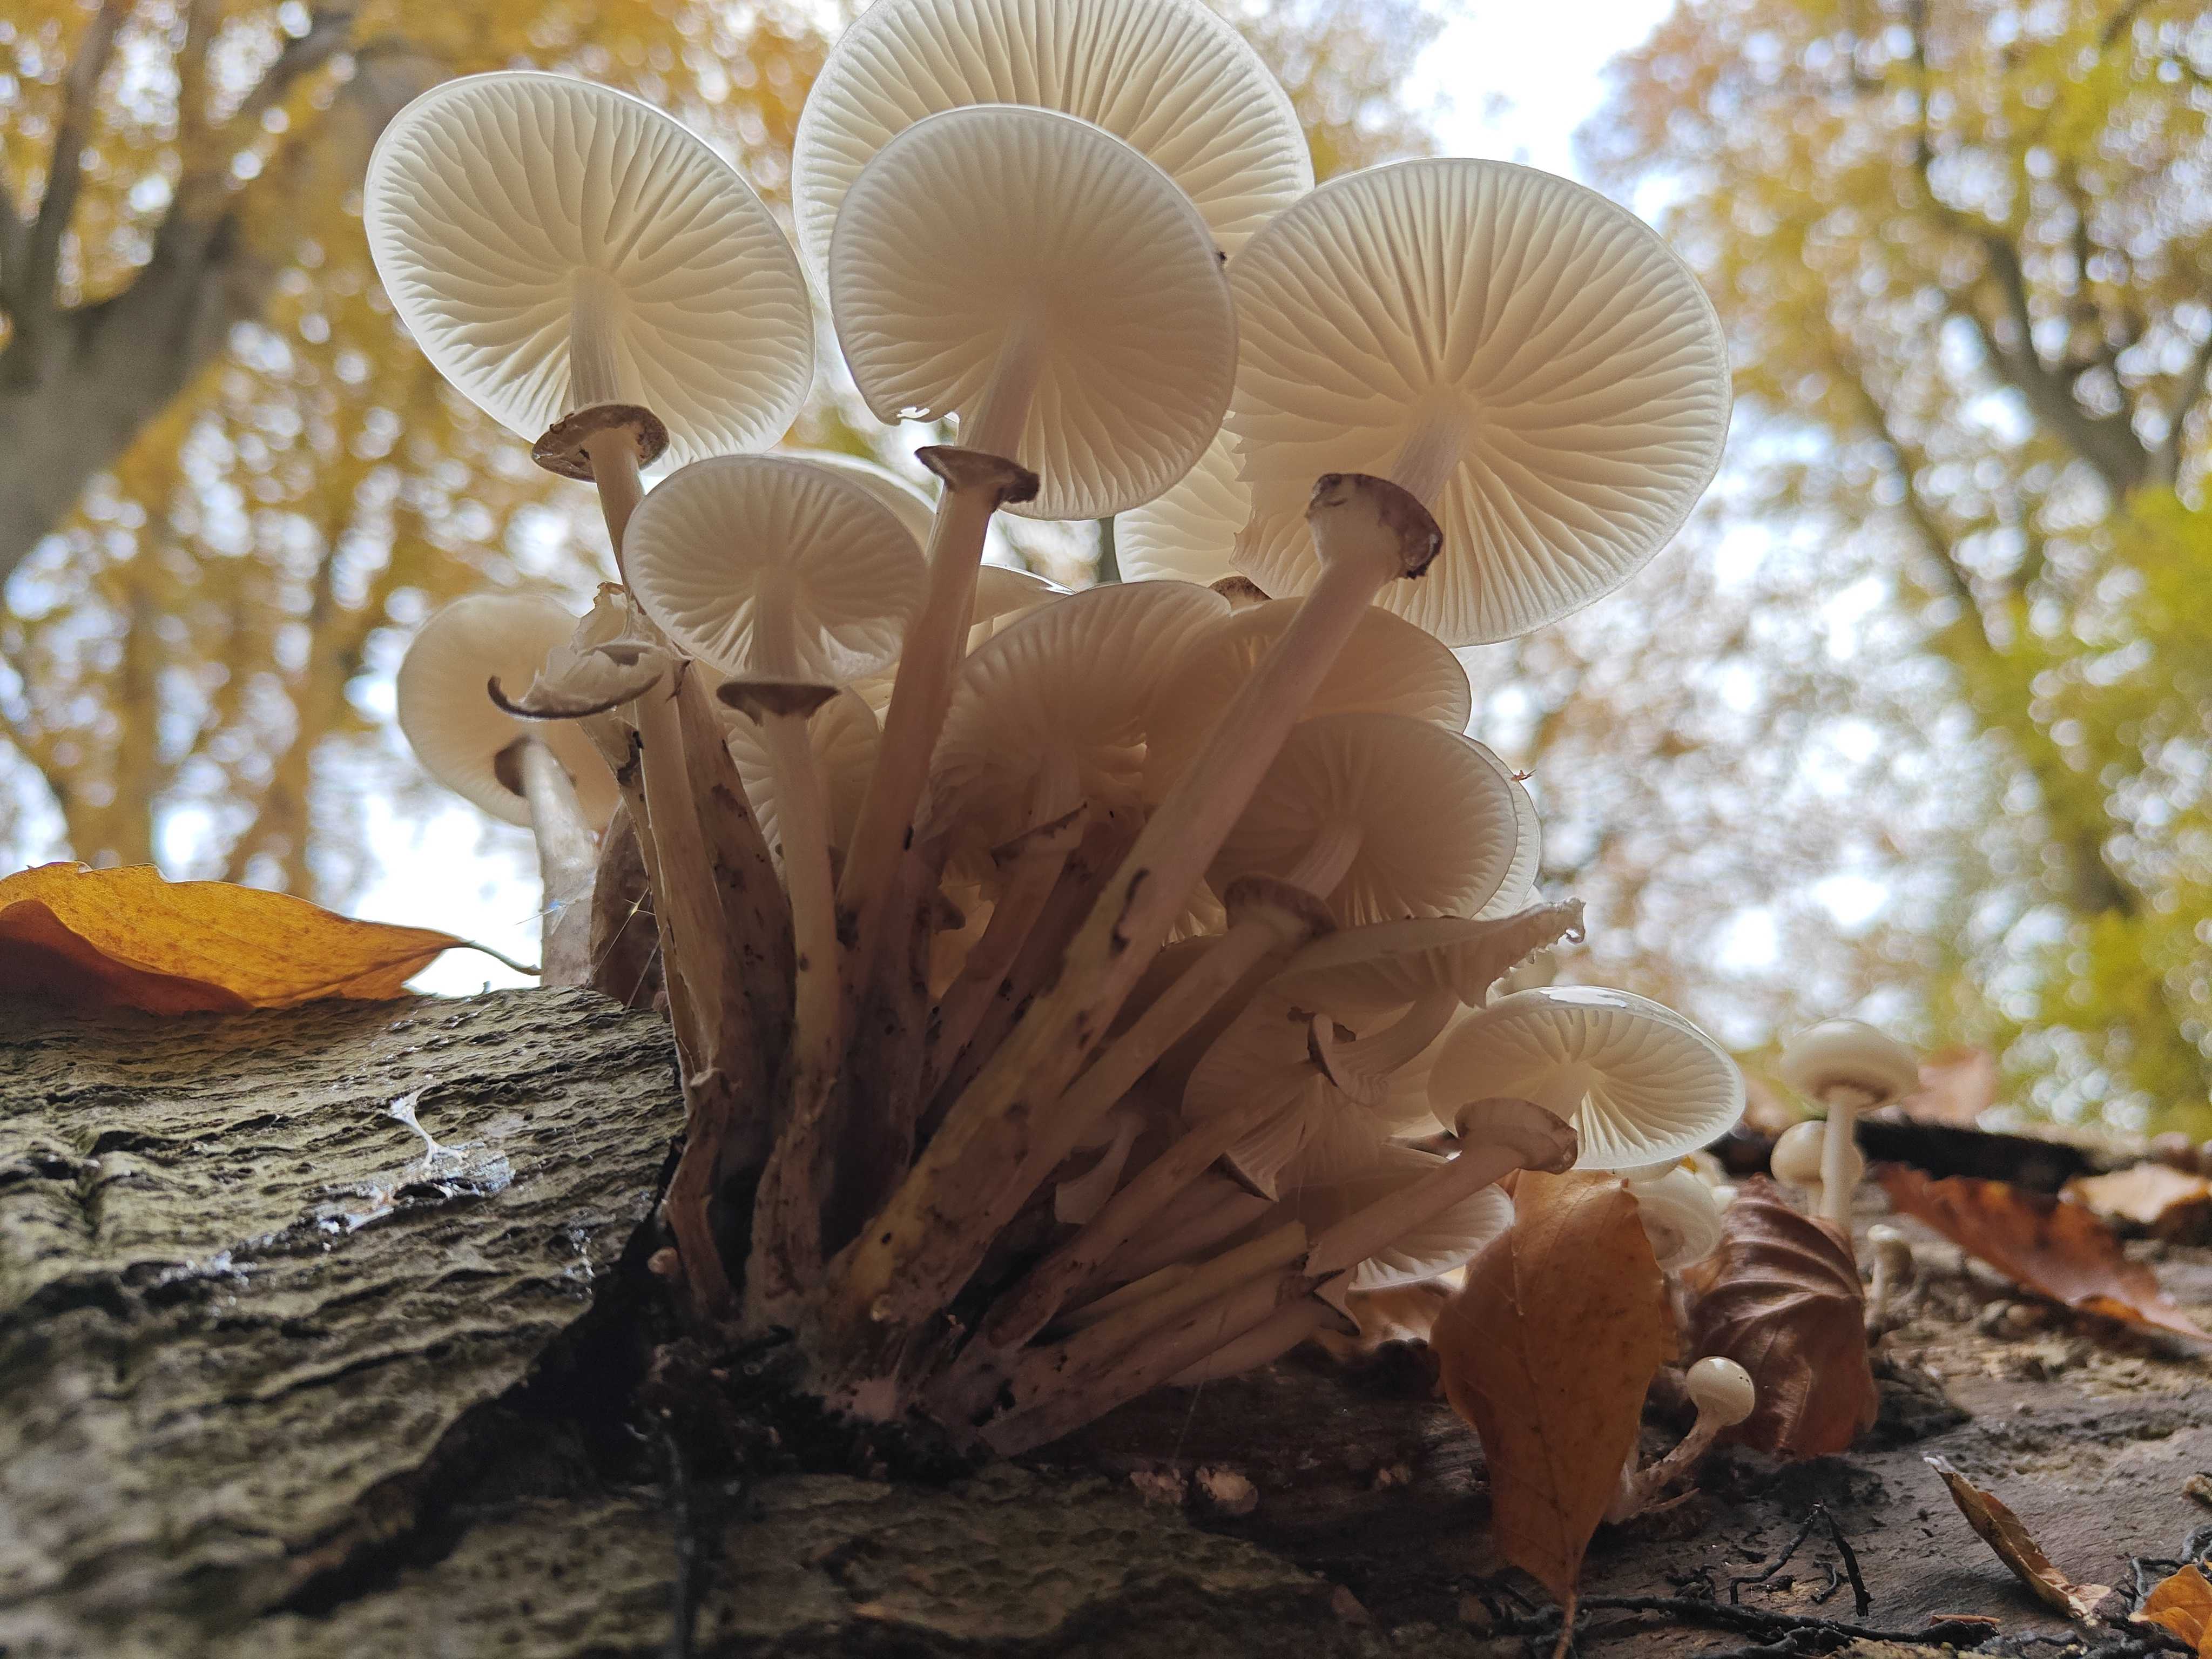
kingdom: Fungi
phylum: Basidiomycota
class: Agaricomycetes
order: Agaricales
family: Physalacriaceae
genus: Mucidula
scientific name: Mucidula mucida
